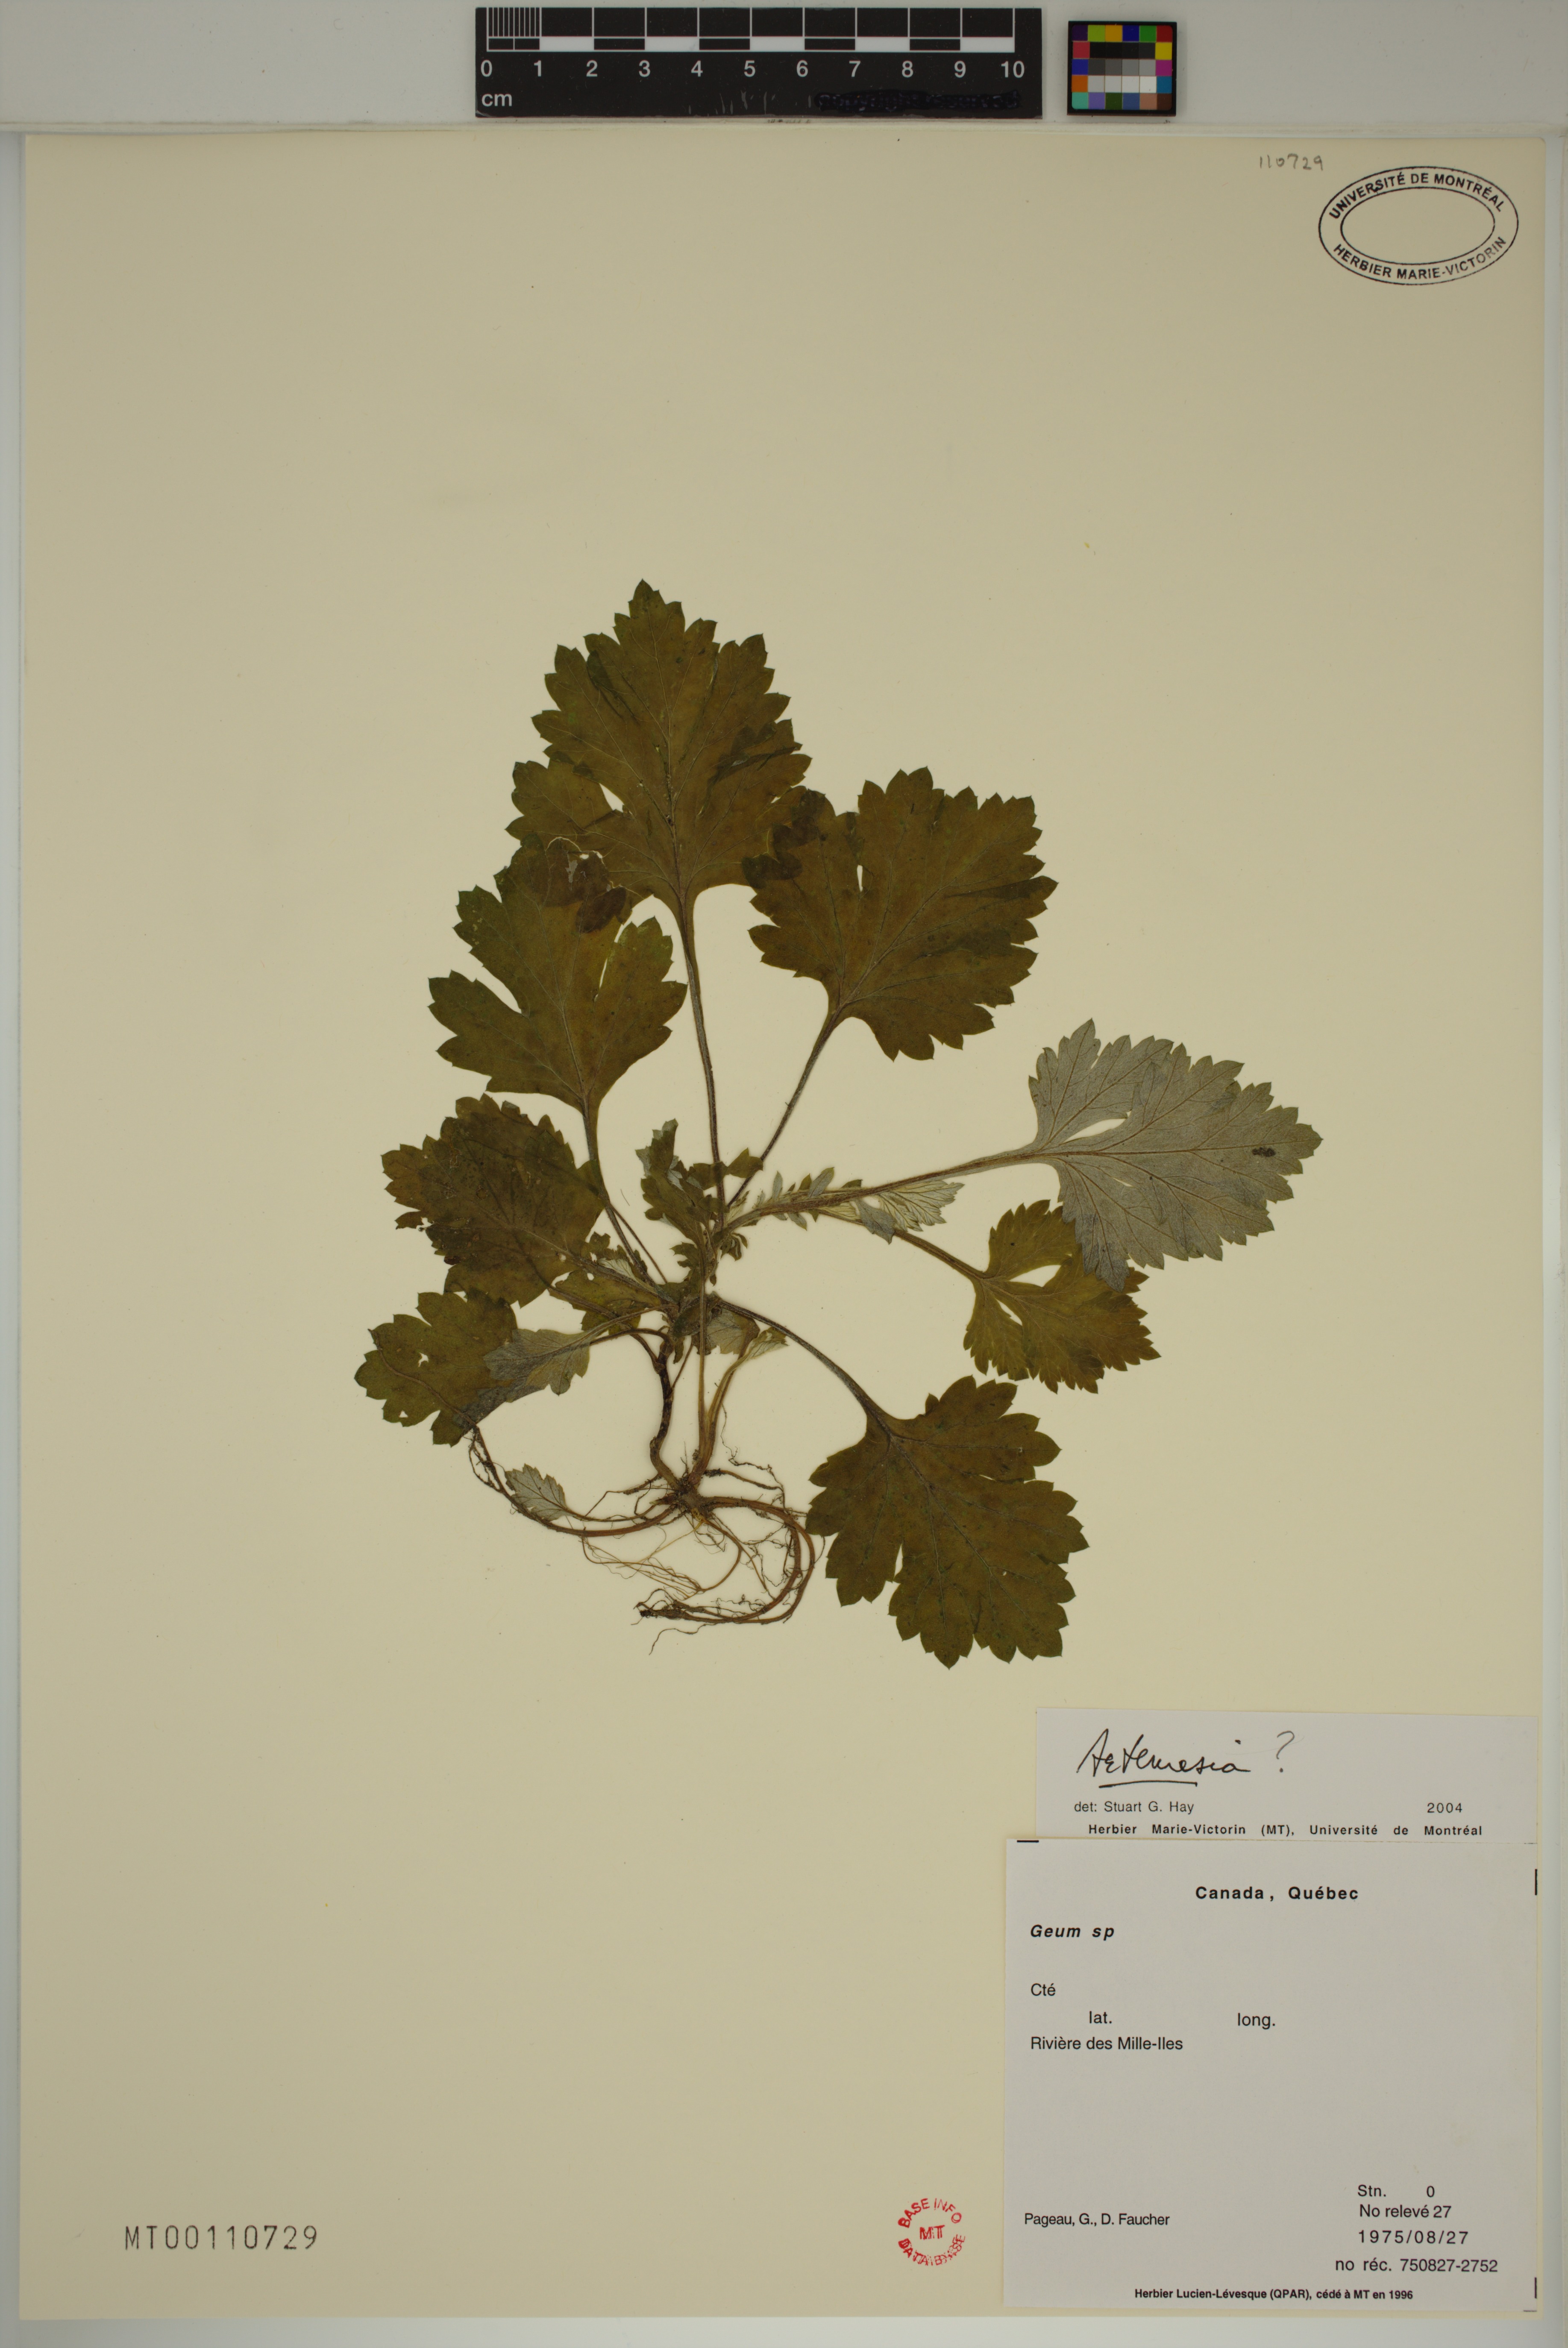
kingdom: Plantae
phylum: Tracheophyta
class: Magnoliopsida
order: Asterales
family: Asteraceae
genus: Artemisia
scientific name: Artemisia
